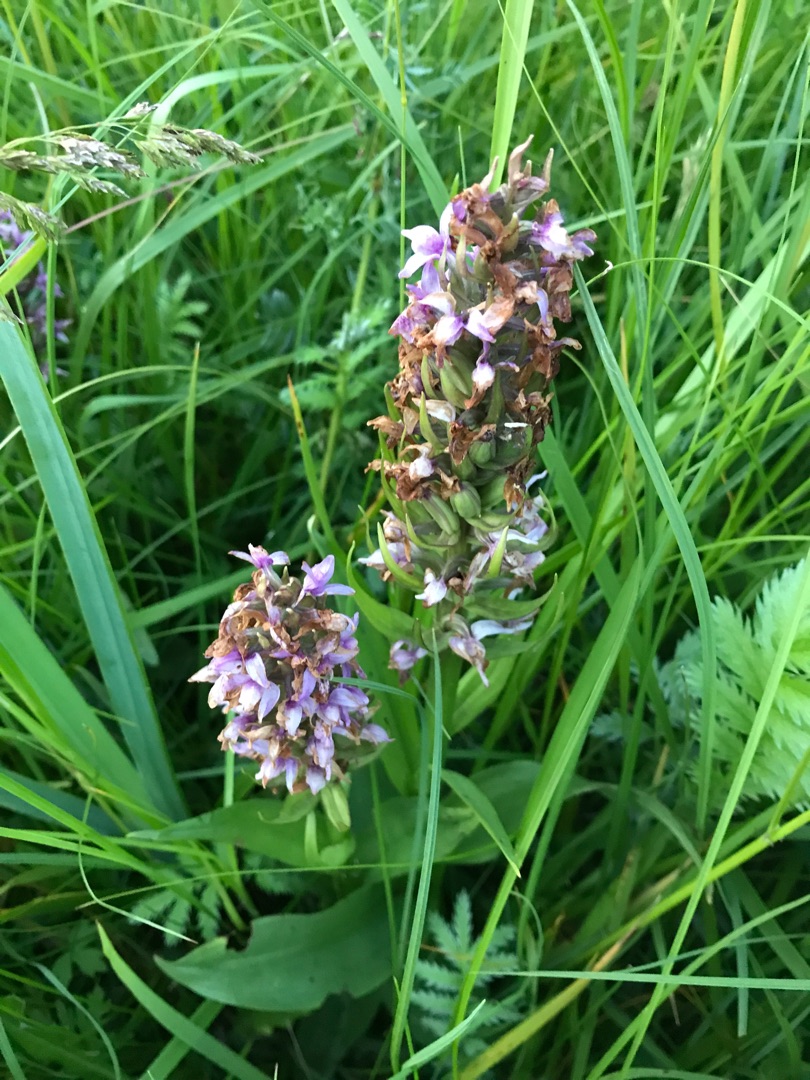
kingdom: Plantae
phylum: Tracheophyta
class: Liliopsida
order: Asparagales
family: Orchidaceae
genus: Dactylorhiza
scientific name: Dactylorhiza
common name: Gøgeurt (Dactylorhiza-slægten)
